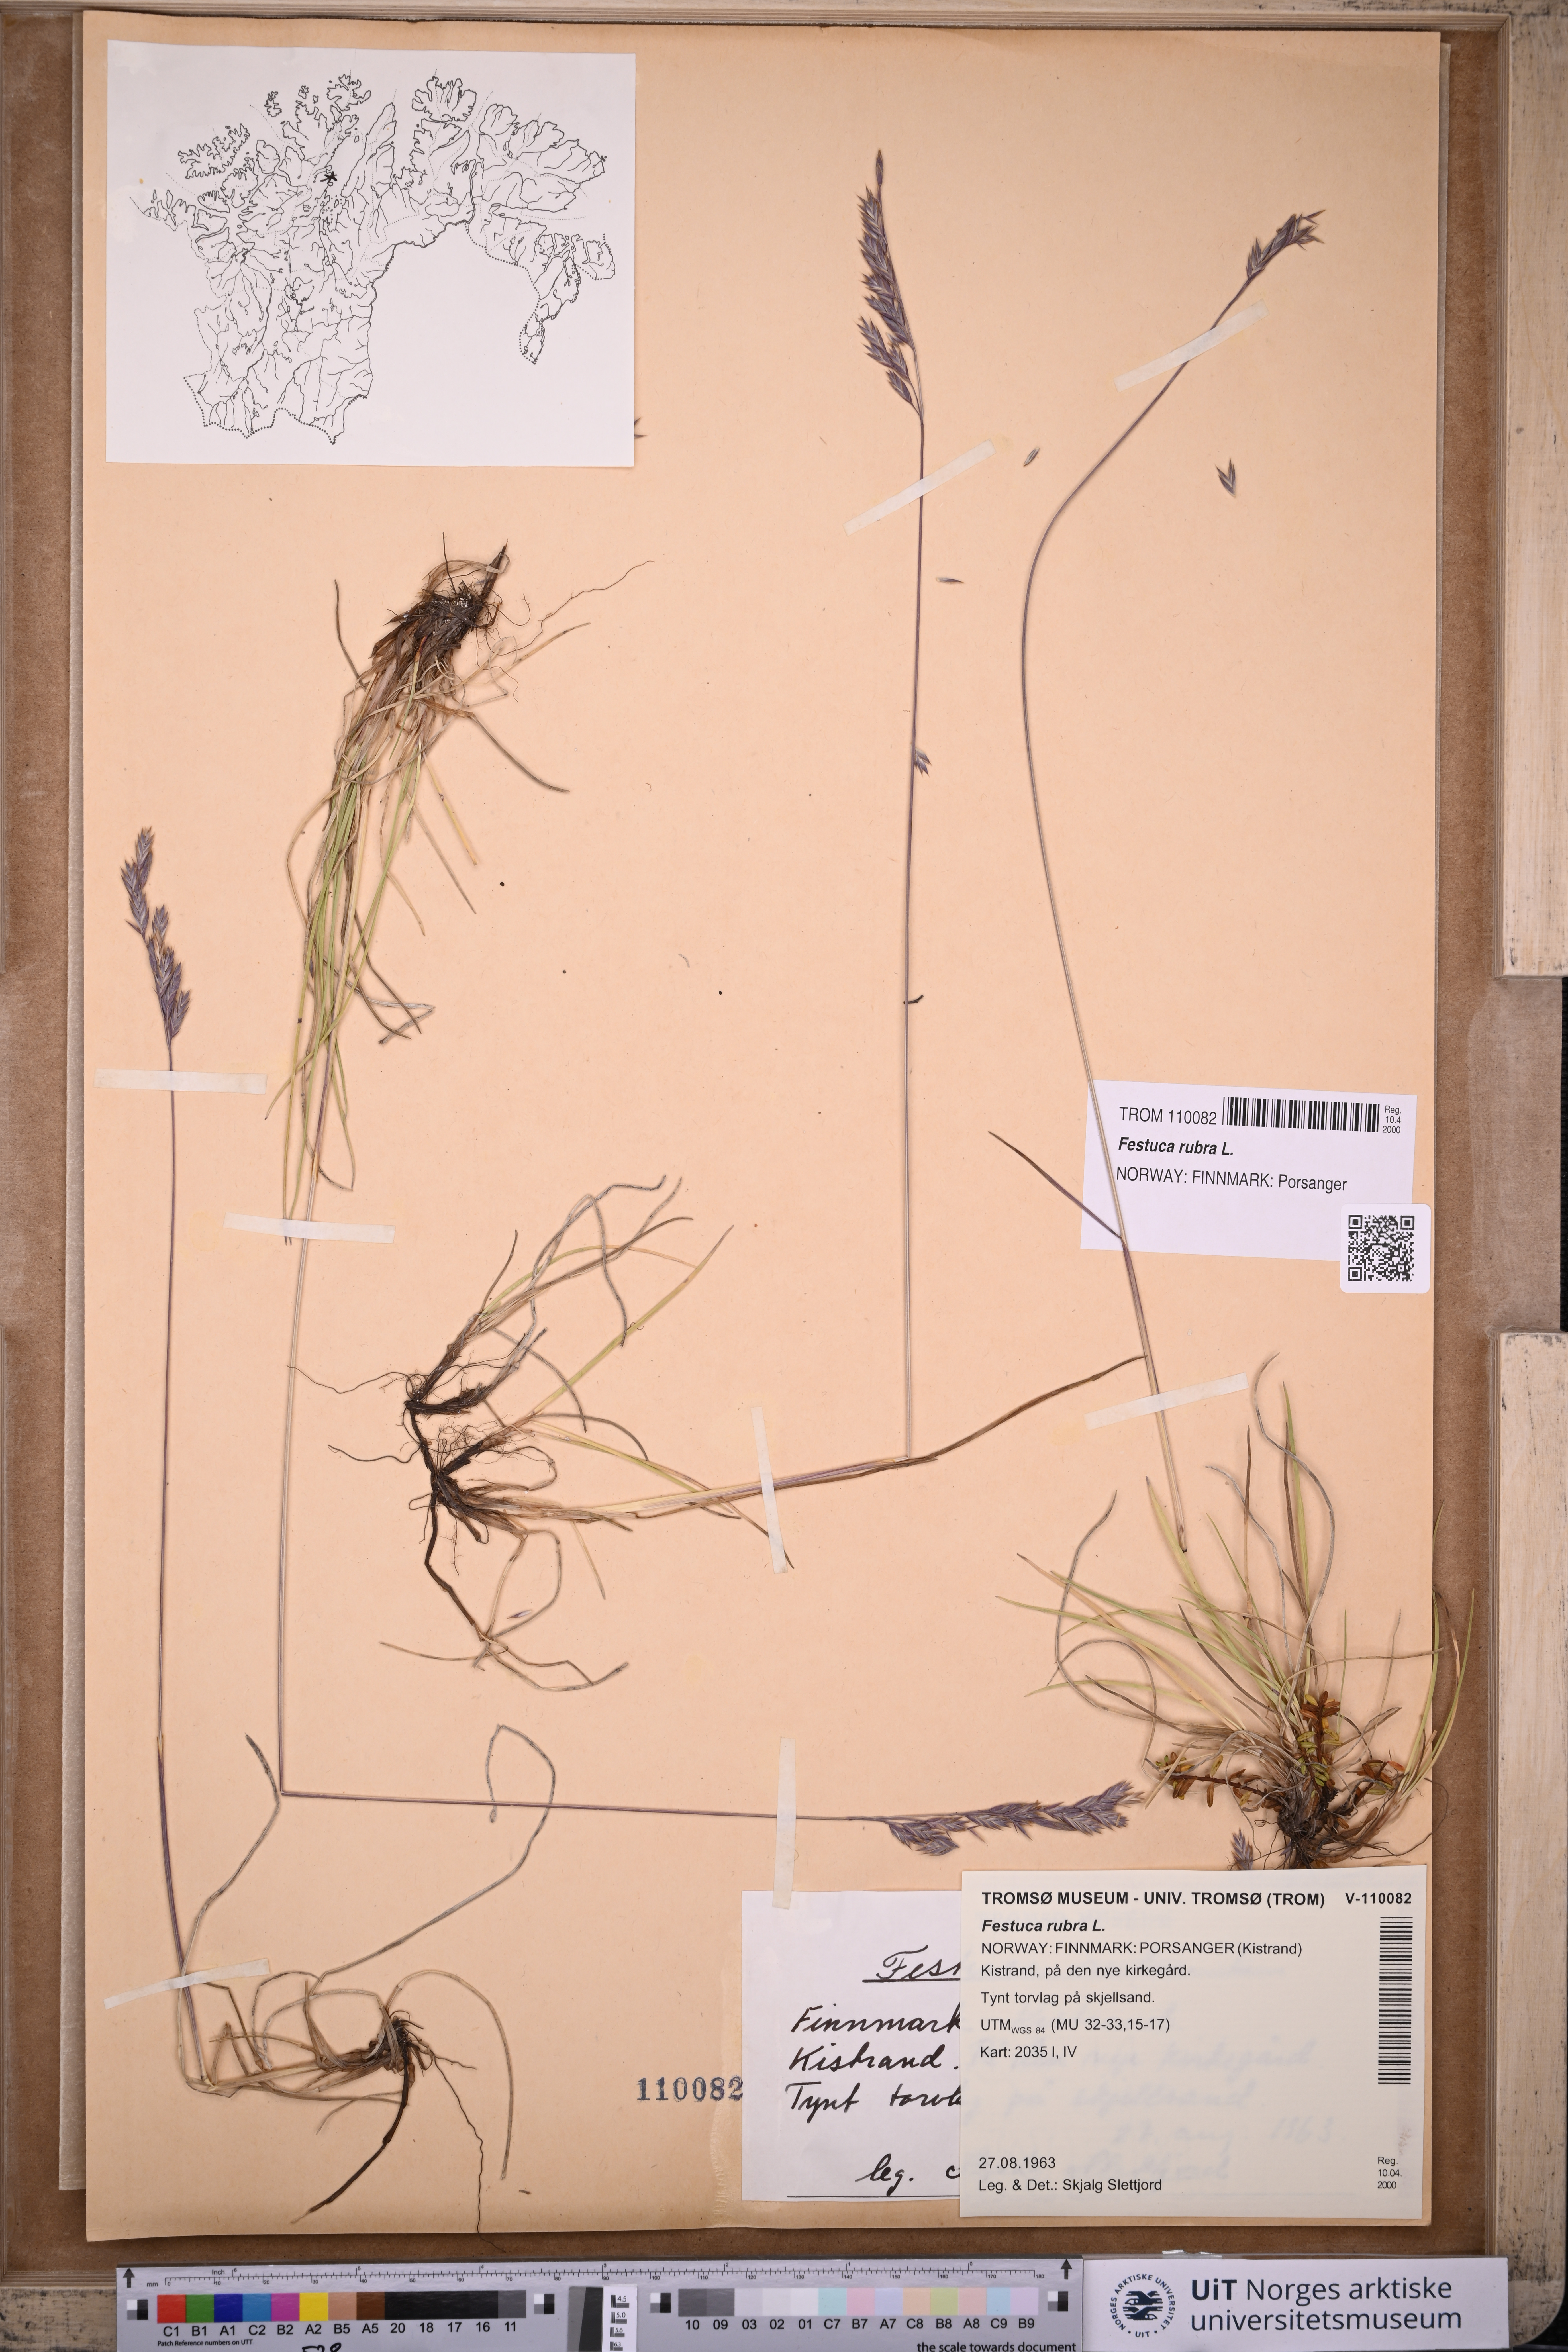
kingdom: Plantae
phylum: Tracheophyta
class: Liliopsida
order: Poales
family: Poaceae
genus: Festuca
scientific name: Festuca rubra
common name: Red fescue
